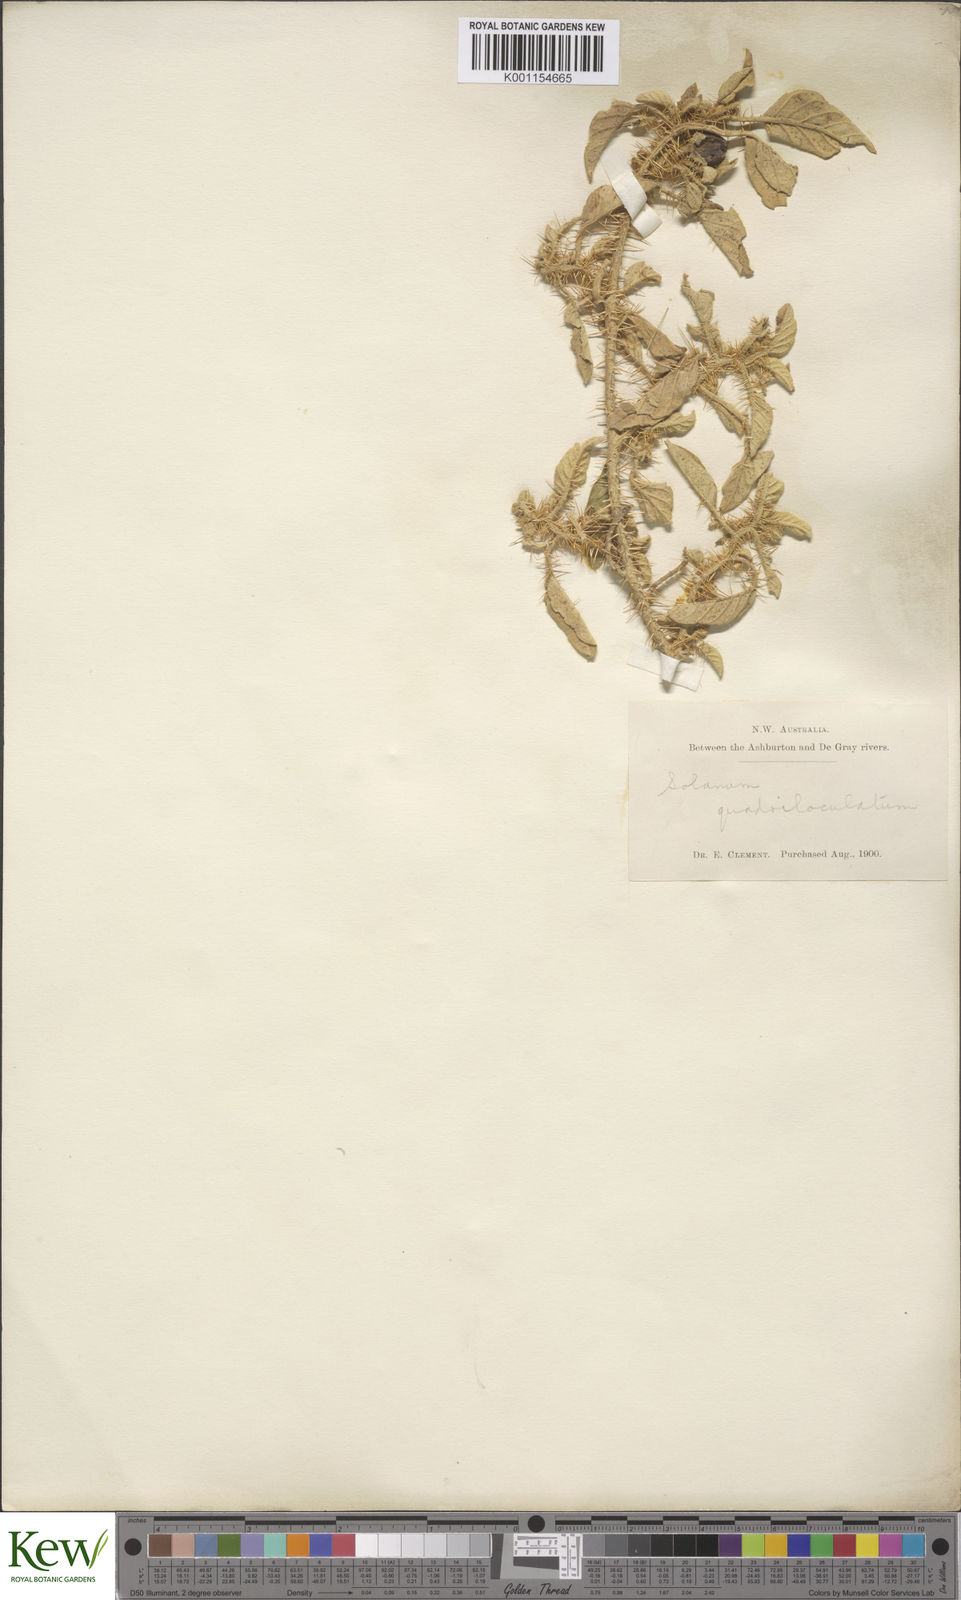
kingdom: Plantae
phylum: Tracheophyta
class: Magnoliopsida
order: Solanales
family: Solanaceae
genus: Solanum
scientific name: Solanum horridum
